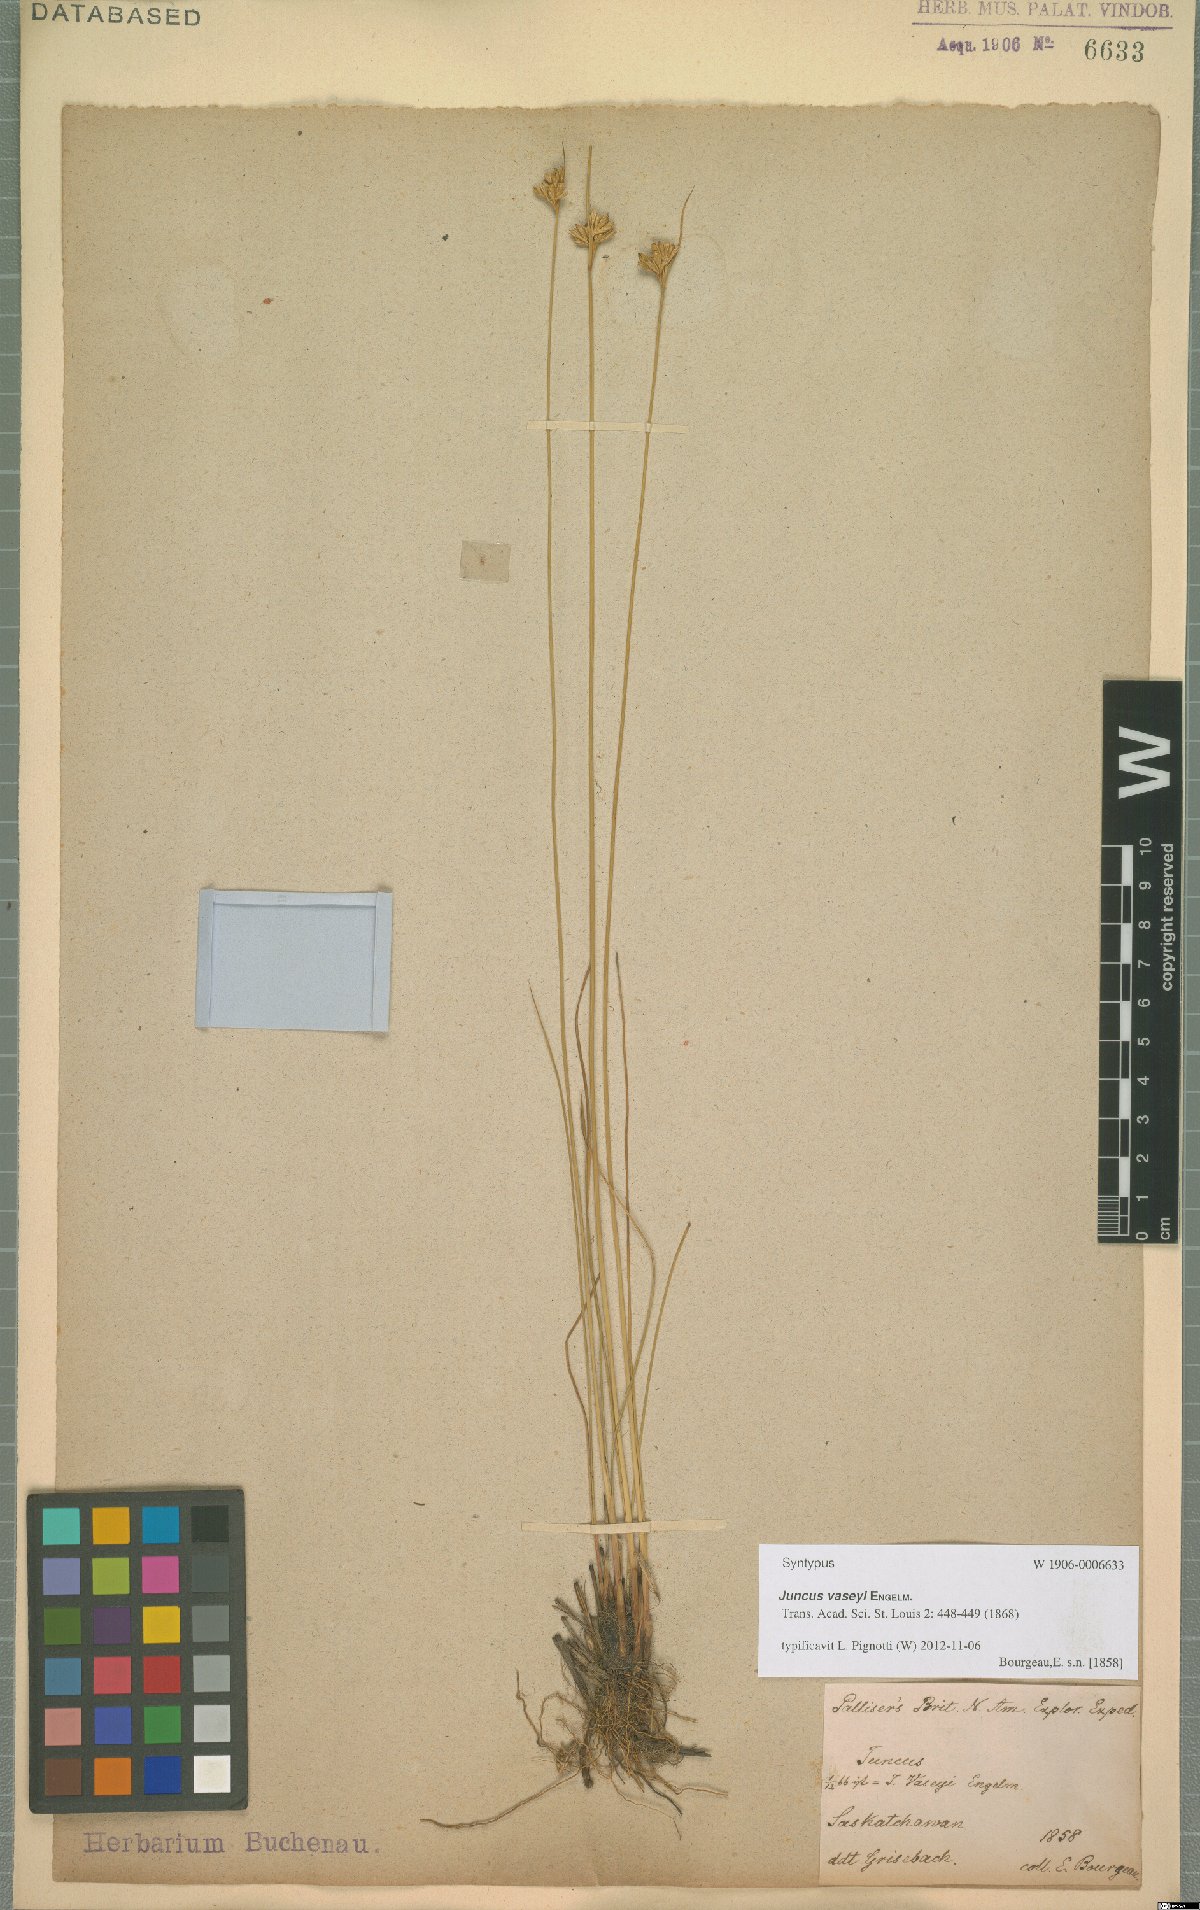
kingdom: Plantae
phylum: Tracheophyta
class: Liliopsida
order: Poales
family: Juncaceae
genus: Juncus
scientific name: Juncus vaseyi
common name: Big-headed rush
